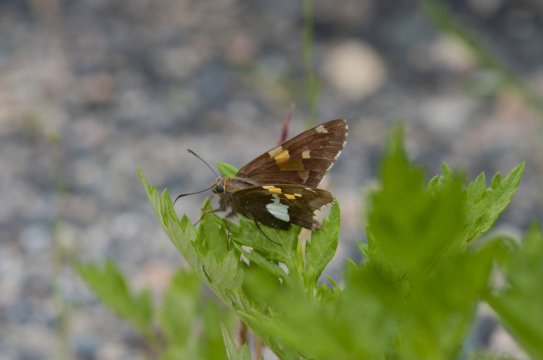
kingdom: Animalia
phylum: Arthropoda
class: Insecta
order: Lepidoptera
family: Hesperiidae
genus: Epargyreus
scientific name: Epargyreus clarus
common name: Silver-spotted Skipper
